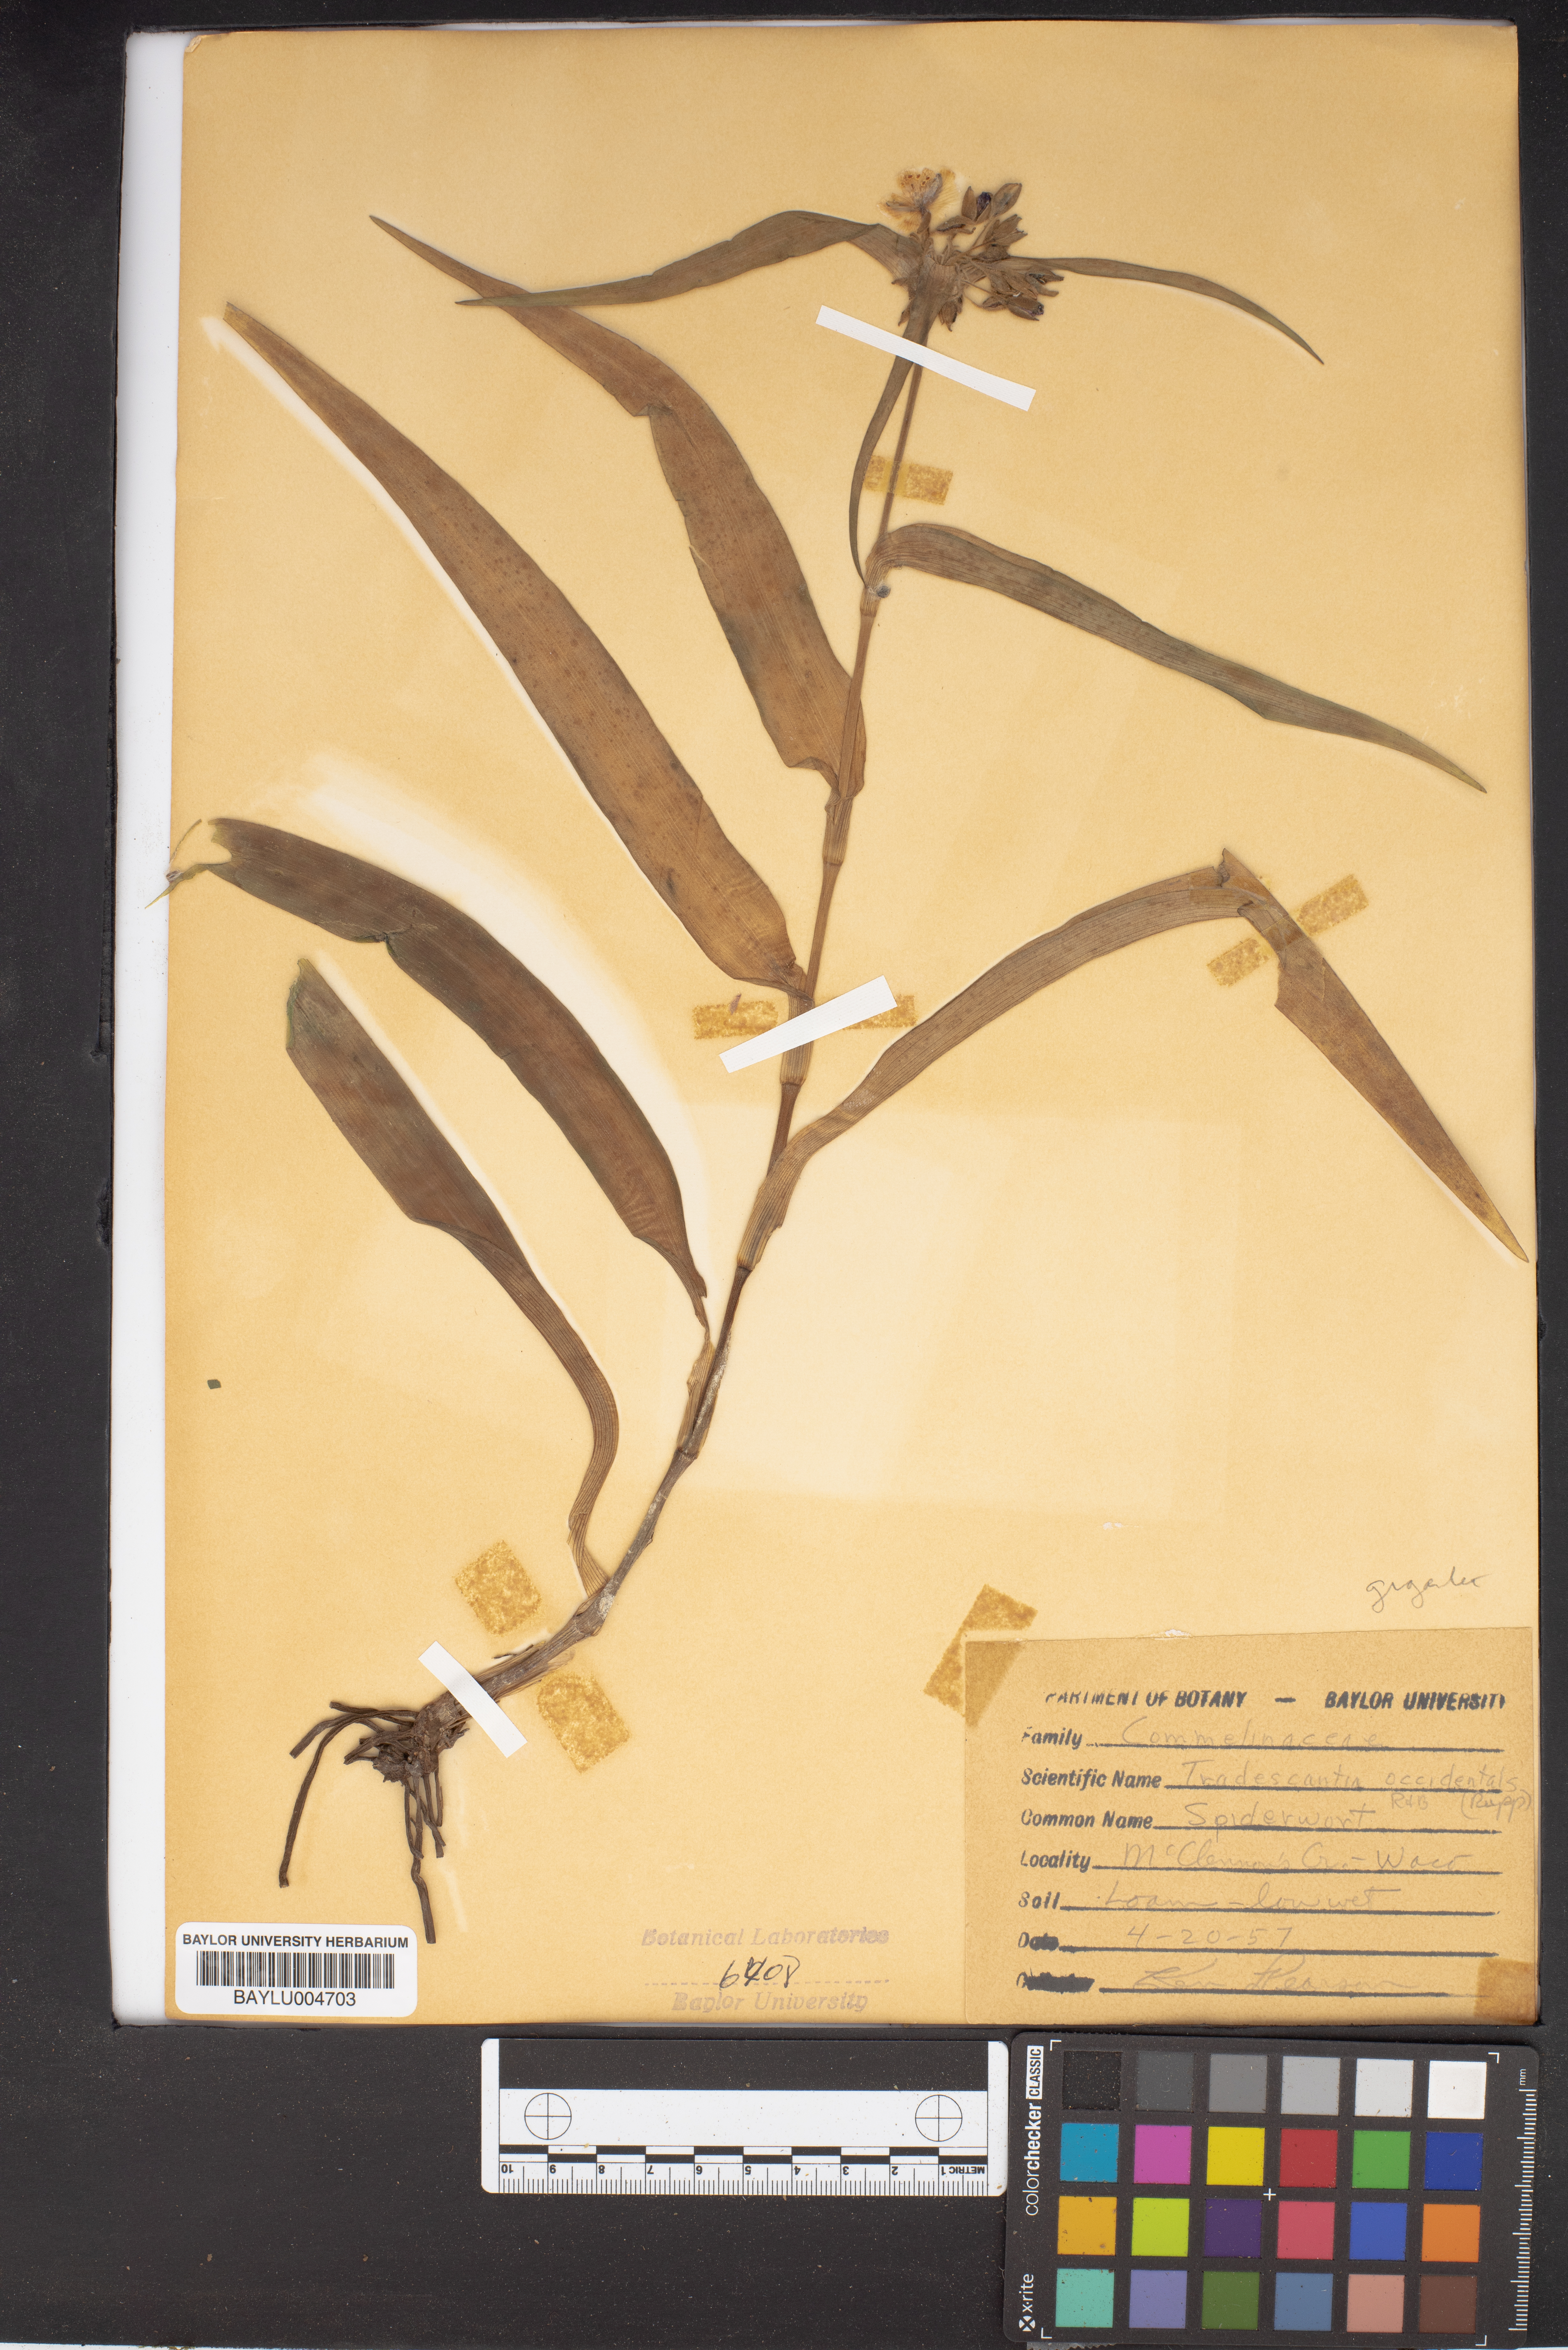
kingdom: Plantae
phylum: Tracheophyta
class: Liliopsida
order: Commelinales
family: Commelinaceae
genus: Tradescantia
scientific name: Tradescantia occidentalis
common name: Prairie spiderwort
